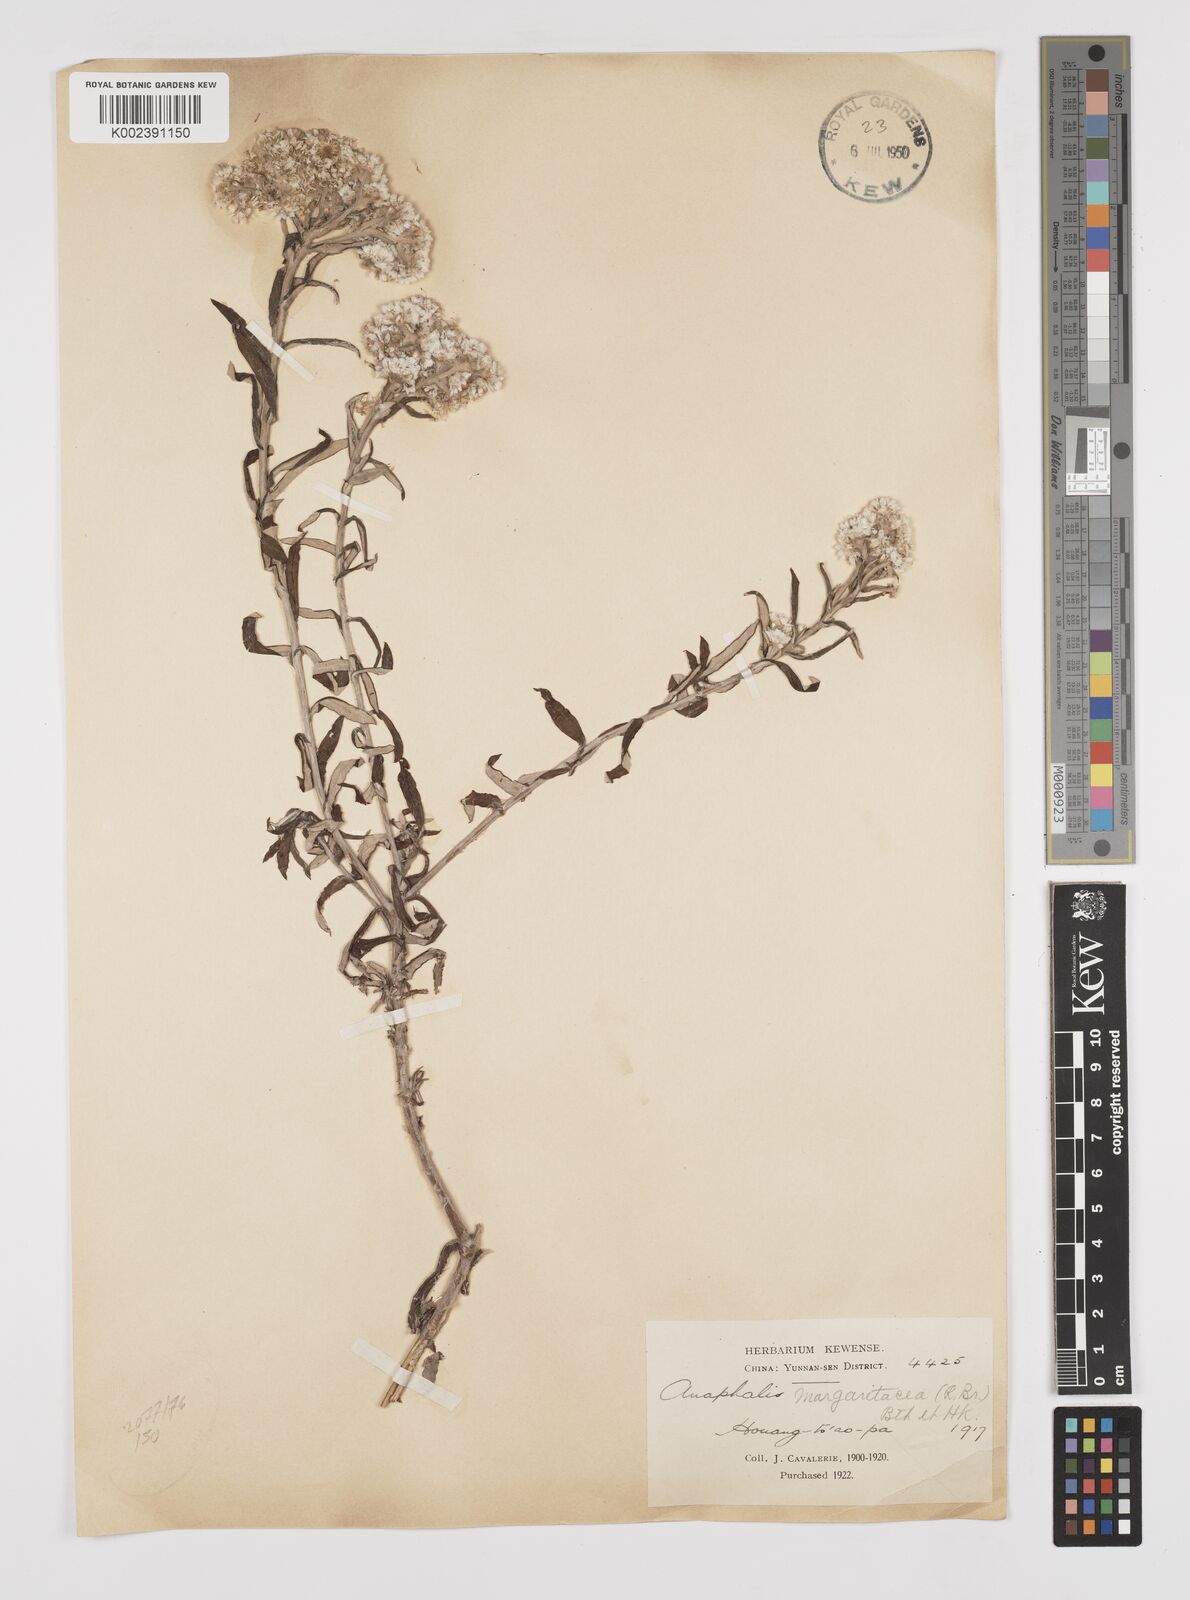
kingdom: Plantae
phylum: Tracheophyta
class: Magnoliopsida
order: Asterales
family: Asteraceae
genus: Anaphalis
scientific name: Anaphalis margaritacea
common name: Pearly everlasting
